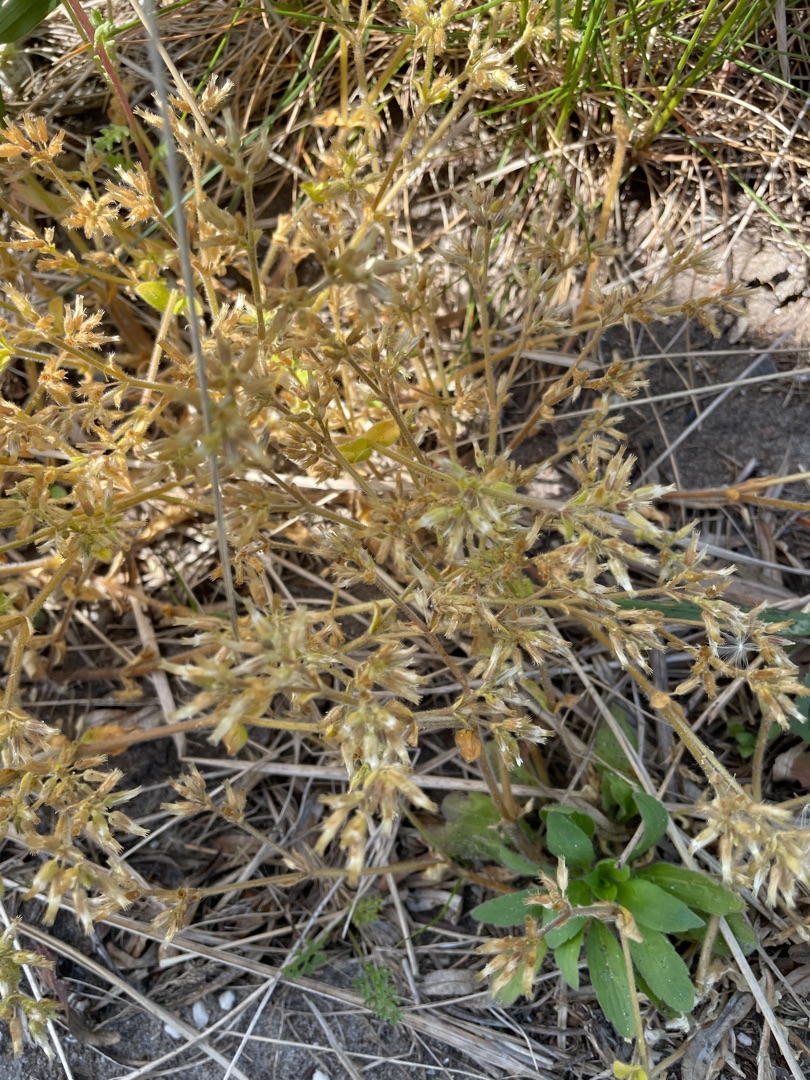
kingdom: Plantae
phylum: Tracheophyta
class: Magnoliopsida
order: Caryophyllales
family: Caryophyllaceae
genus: Cerastium
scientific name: Cerastium
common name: Hønsetarmslægten
